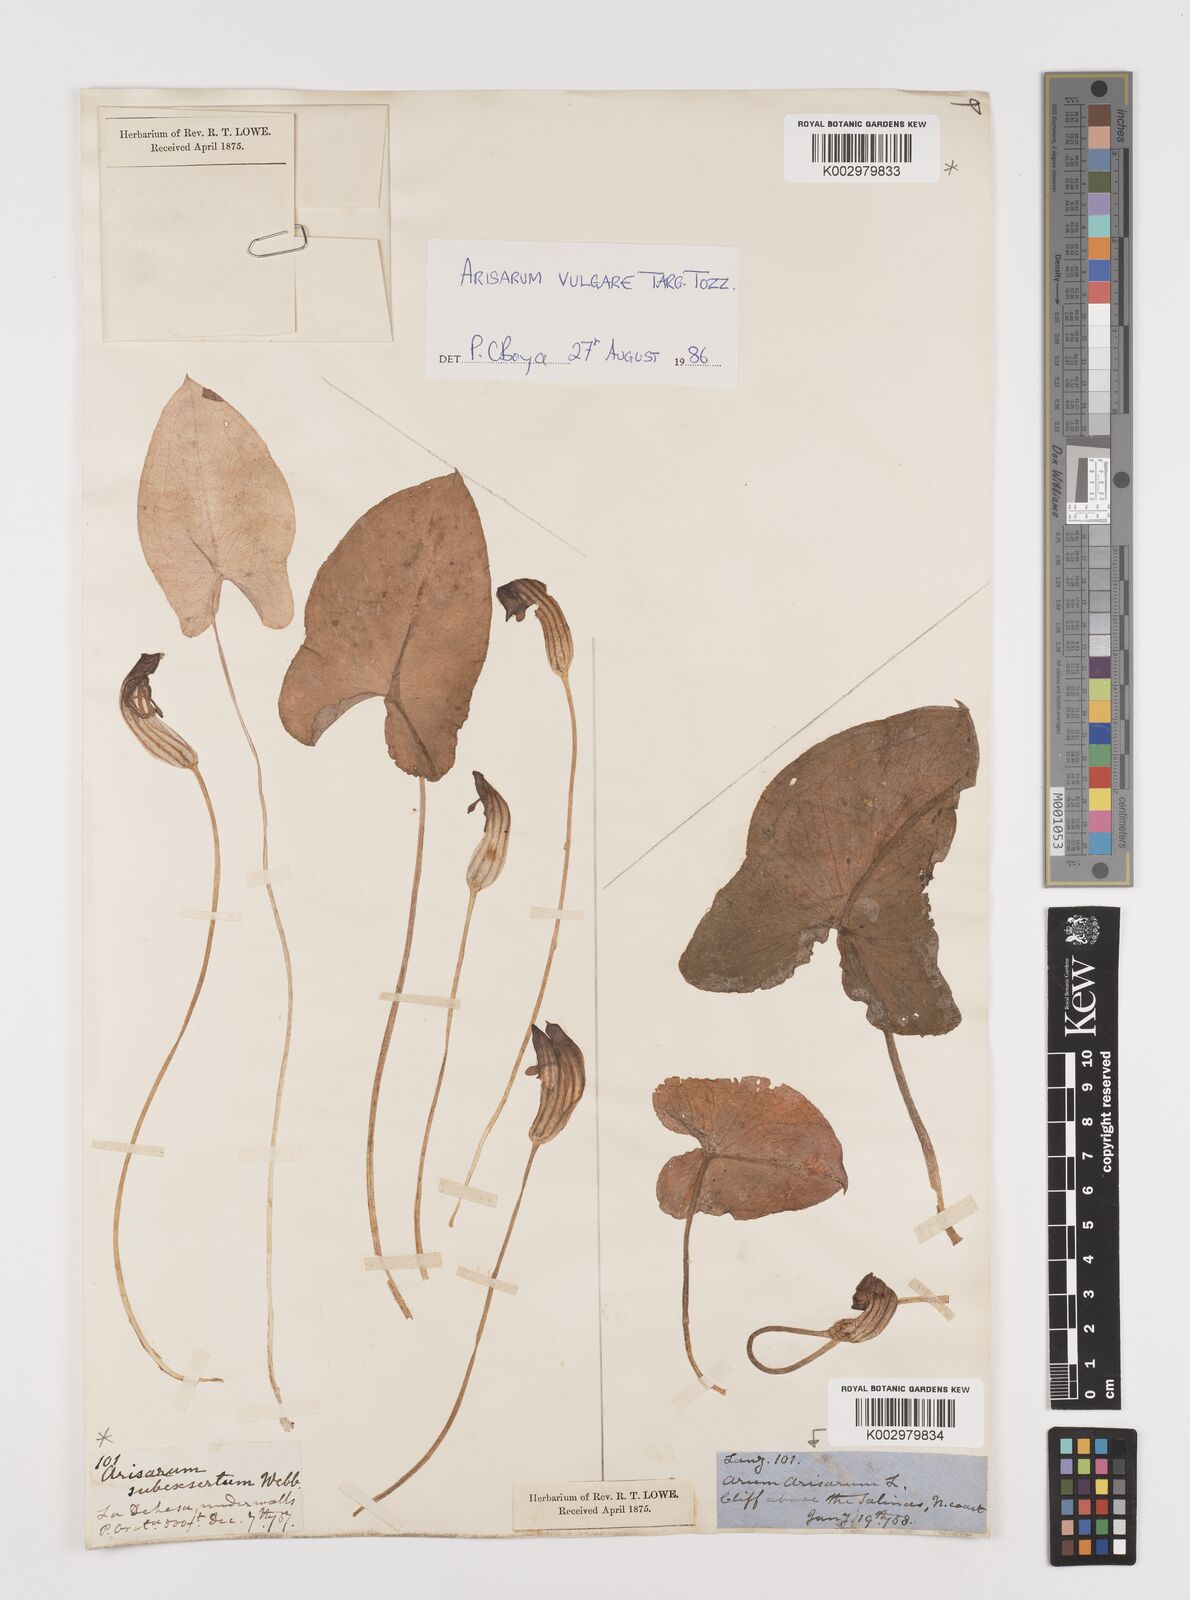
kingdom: Plantae
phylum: Tracheophyta
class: Liliopsida
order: Alismatales
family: Araceae
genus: Arisarum
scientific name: Arisarum vulgare
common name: Common arisarum
